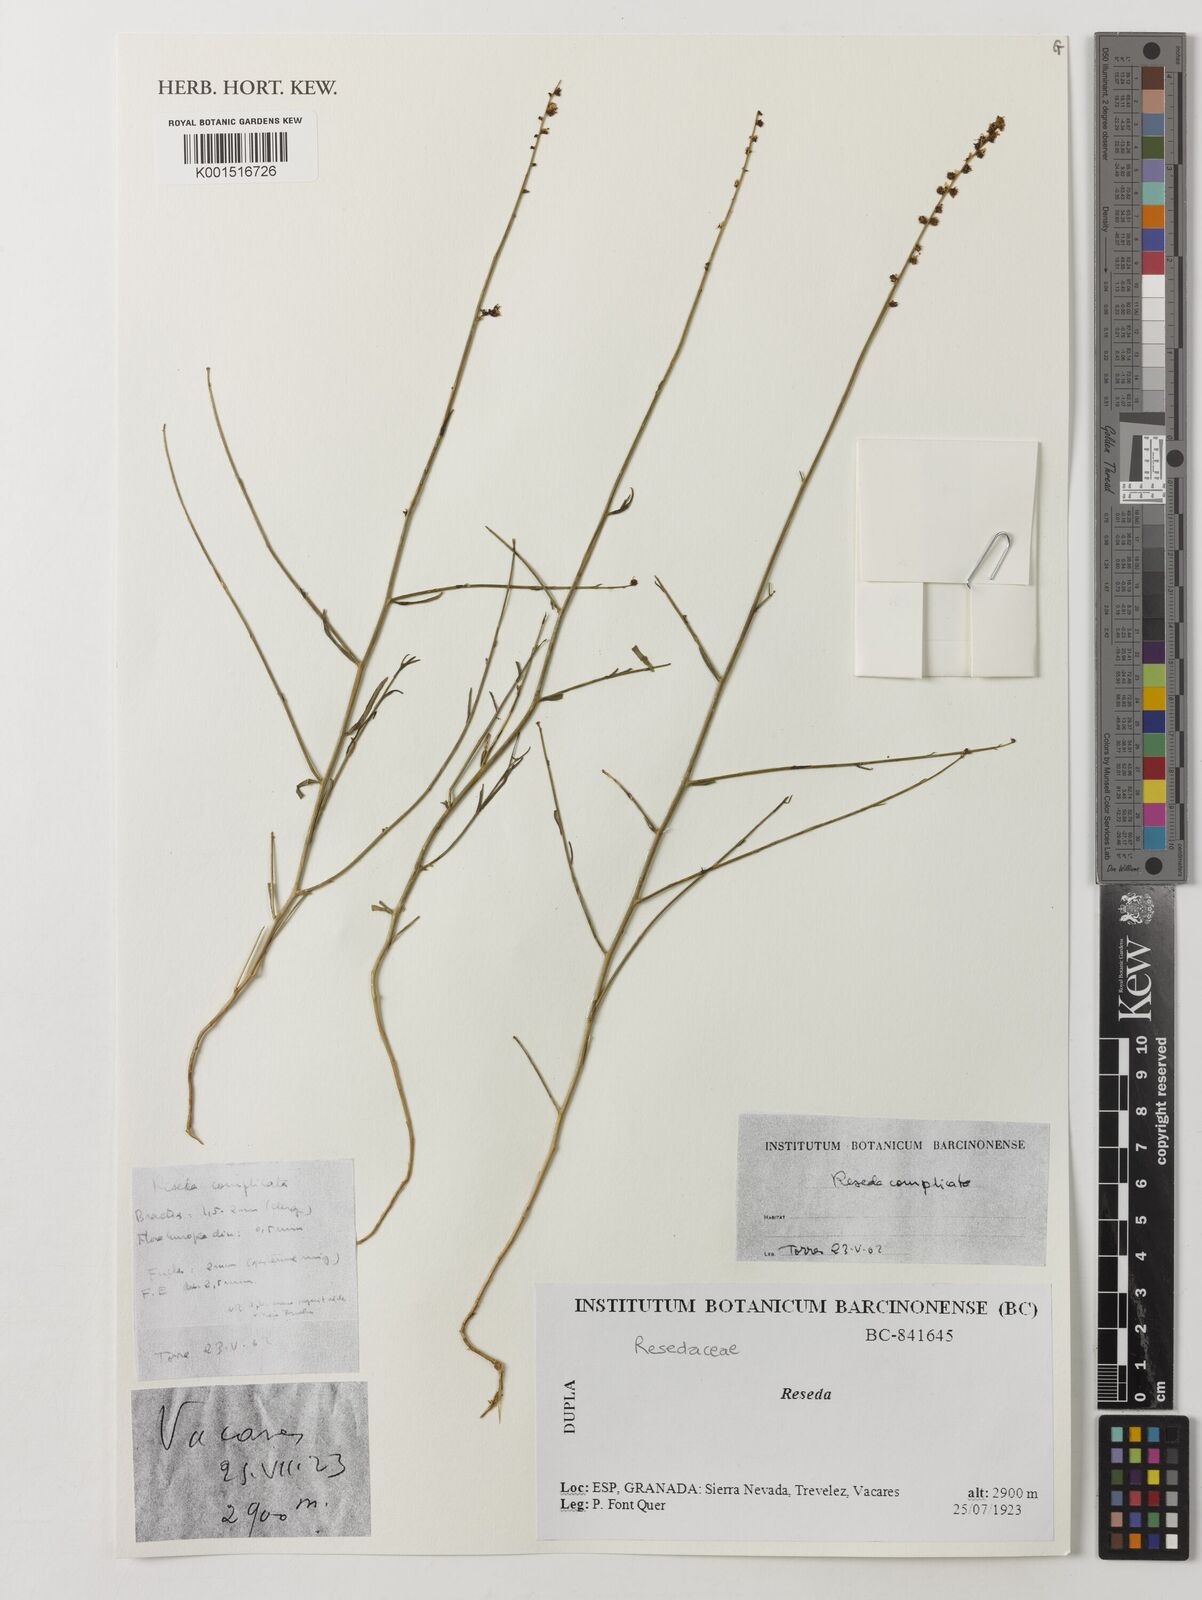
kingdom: Plantae
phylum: Tracheophyta
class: Magnoliopsida
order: Brassicales
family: Resedaceae
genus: Reseda
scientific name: Reseda complicata
